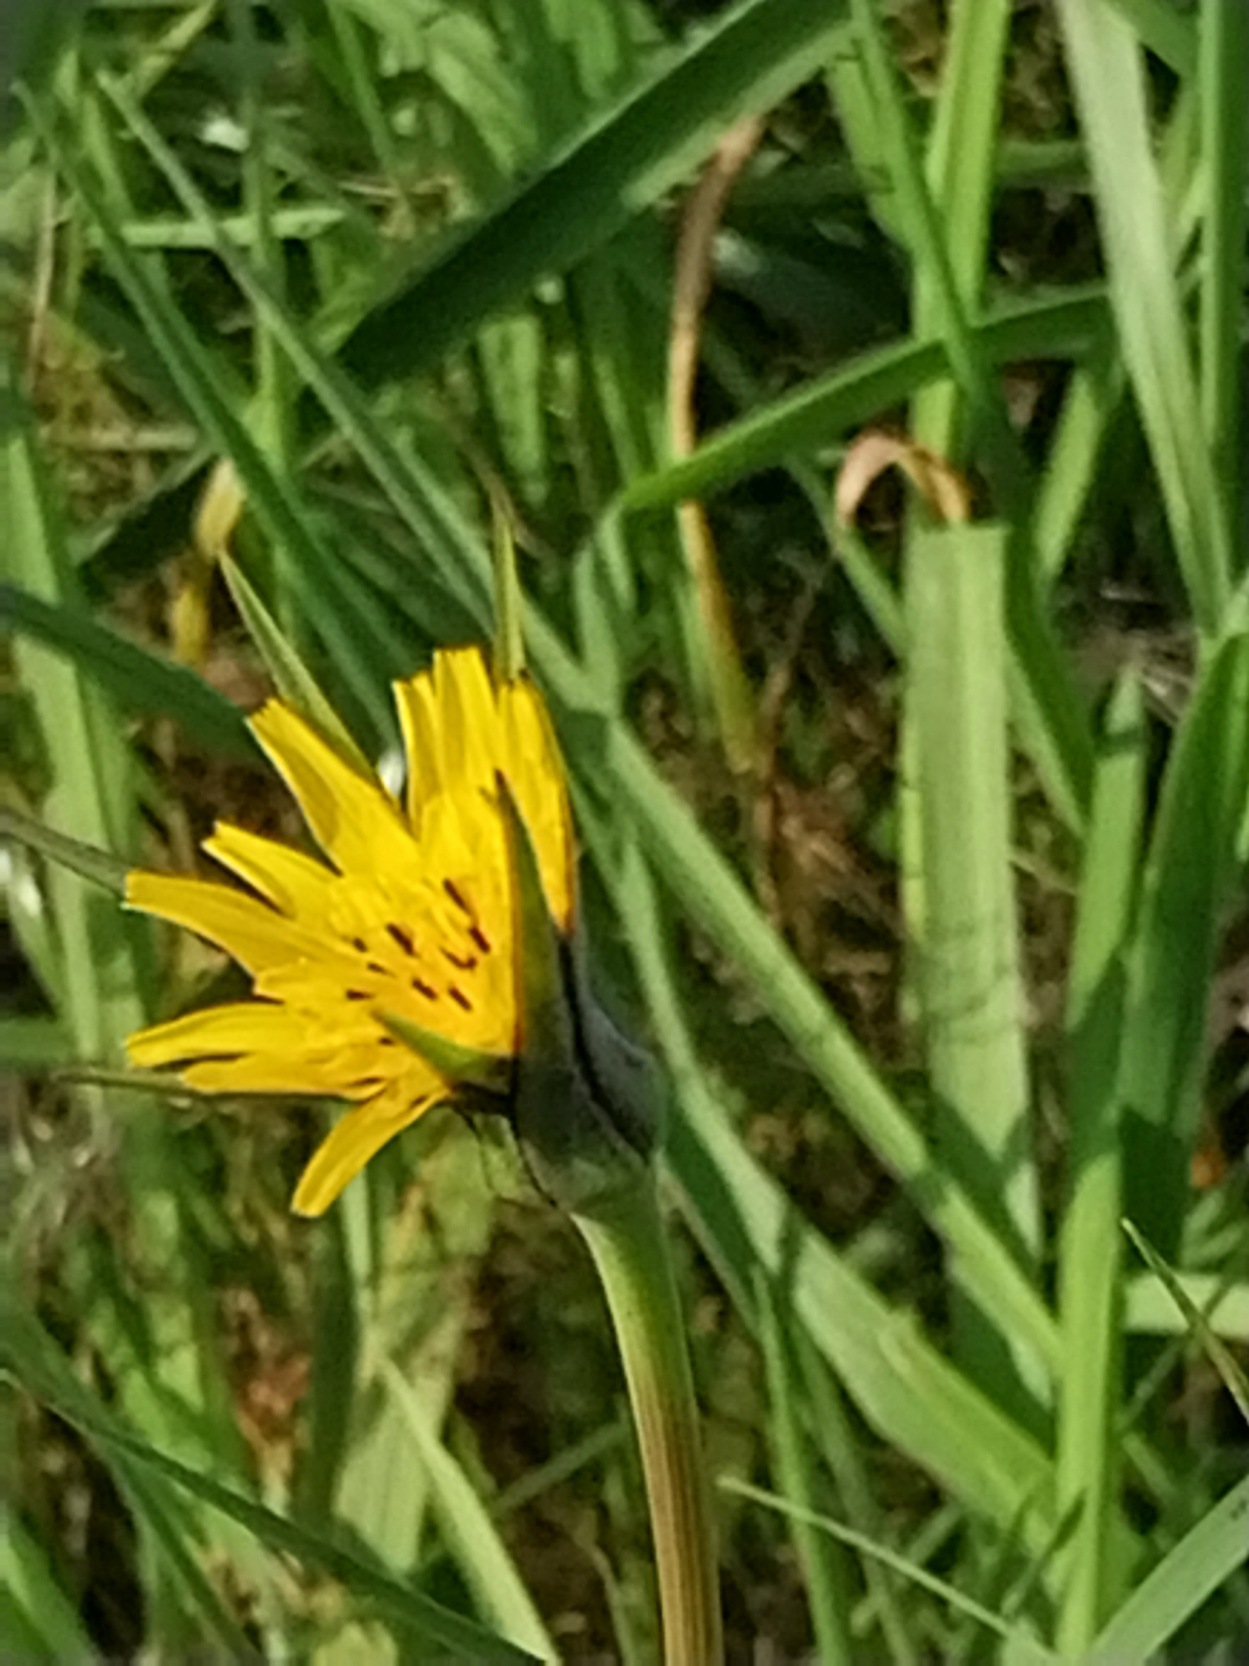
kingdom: Plantae
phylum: Tracheophyta
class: Magnoliopsida
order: Asterales
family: Asteraceae
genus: Tragopogon
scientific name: Tragopogon minor
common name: Småkronet gedeskæg
